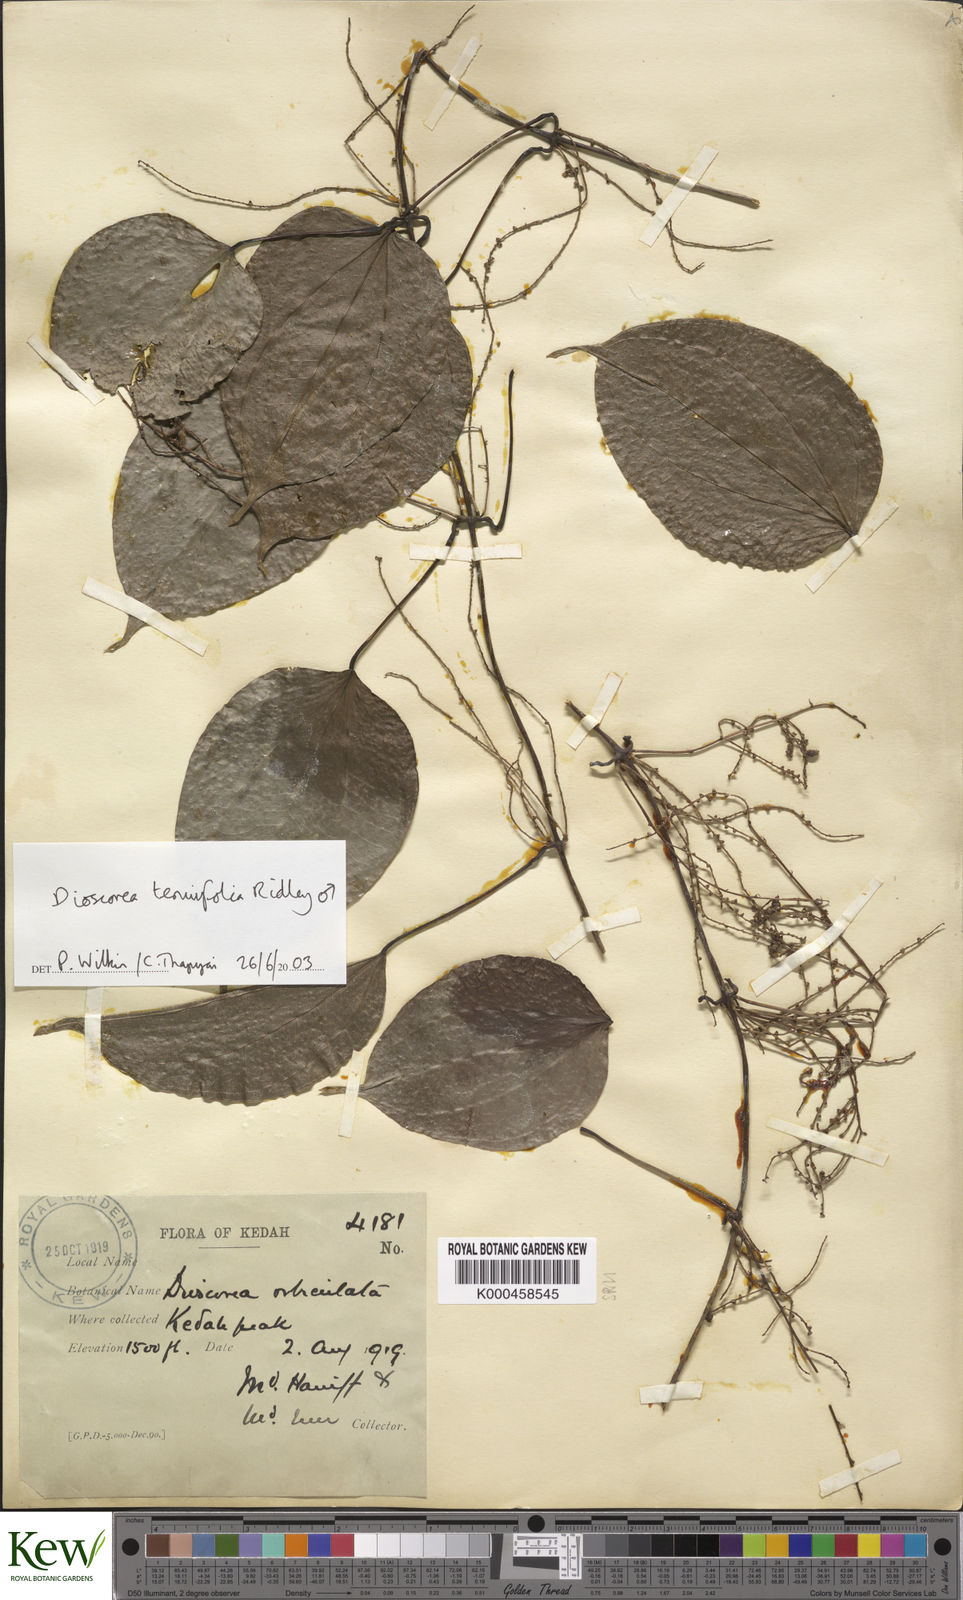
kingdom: Plantae
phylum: Tracheophyta
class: Liliopsida
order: Dioscoreales
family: Dioscoreaceae
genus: Dioscorea
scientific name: Dioscorea tenuifolia
